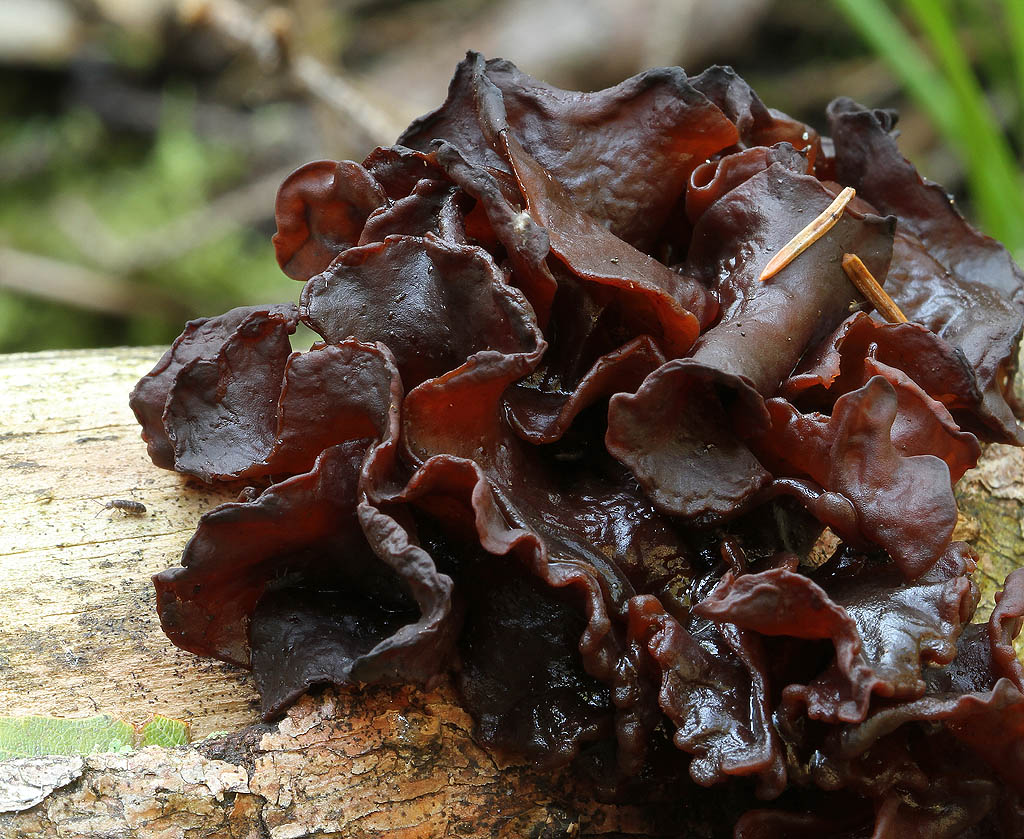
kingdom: Fungi
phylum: Basidiomycota
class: Tremellomycetes
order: Tremellales
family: Tremellaceae
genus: Phaeotremella
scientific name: Phaeotremella foliacea
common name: brun bævresvamp
